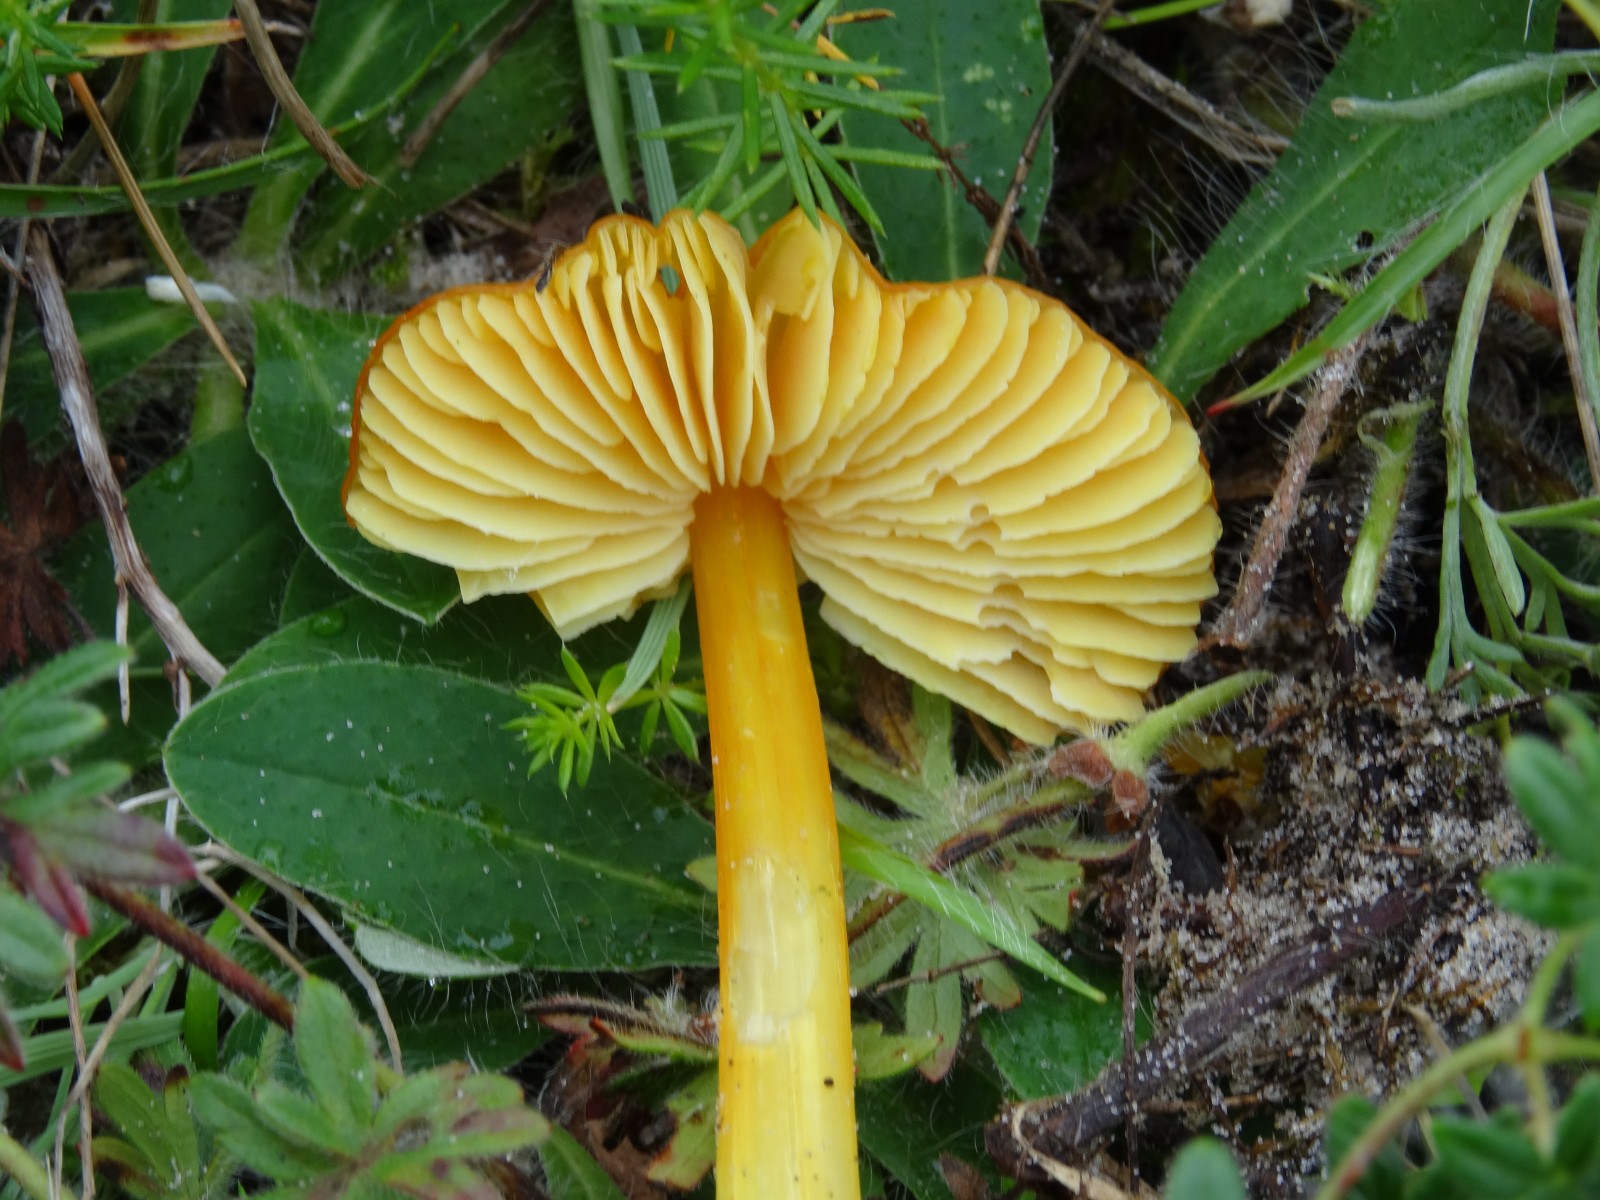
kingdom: Fungi
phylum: Basidiomycota
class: Agaricomycetes
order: Agaricales
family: Hygrophoraceae
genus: Hygrocybe
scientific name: Hygrocybe
